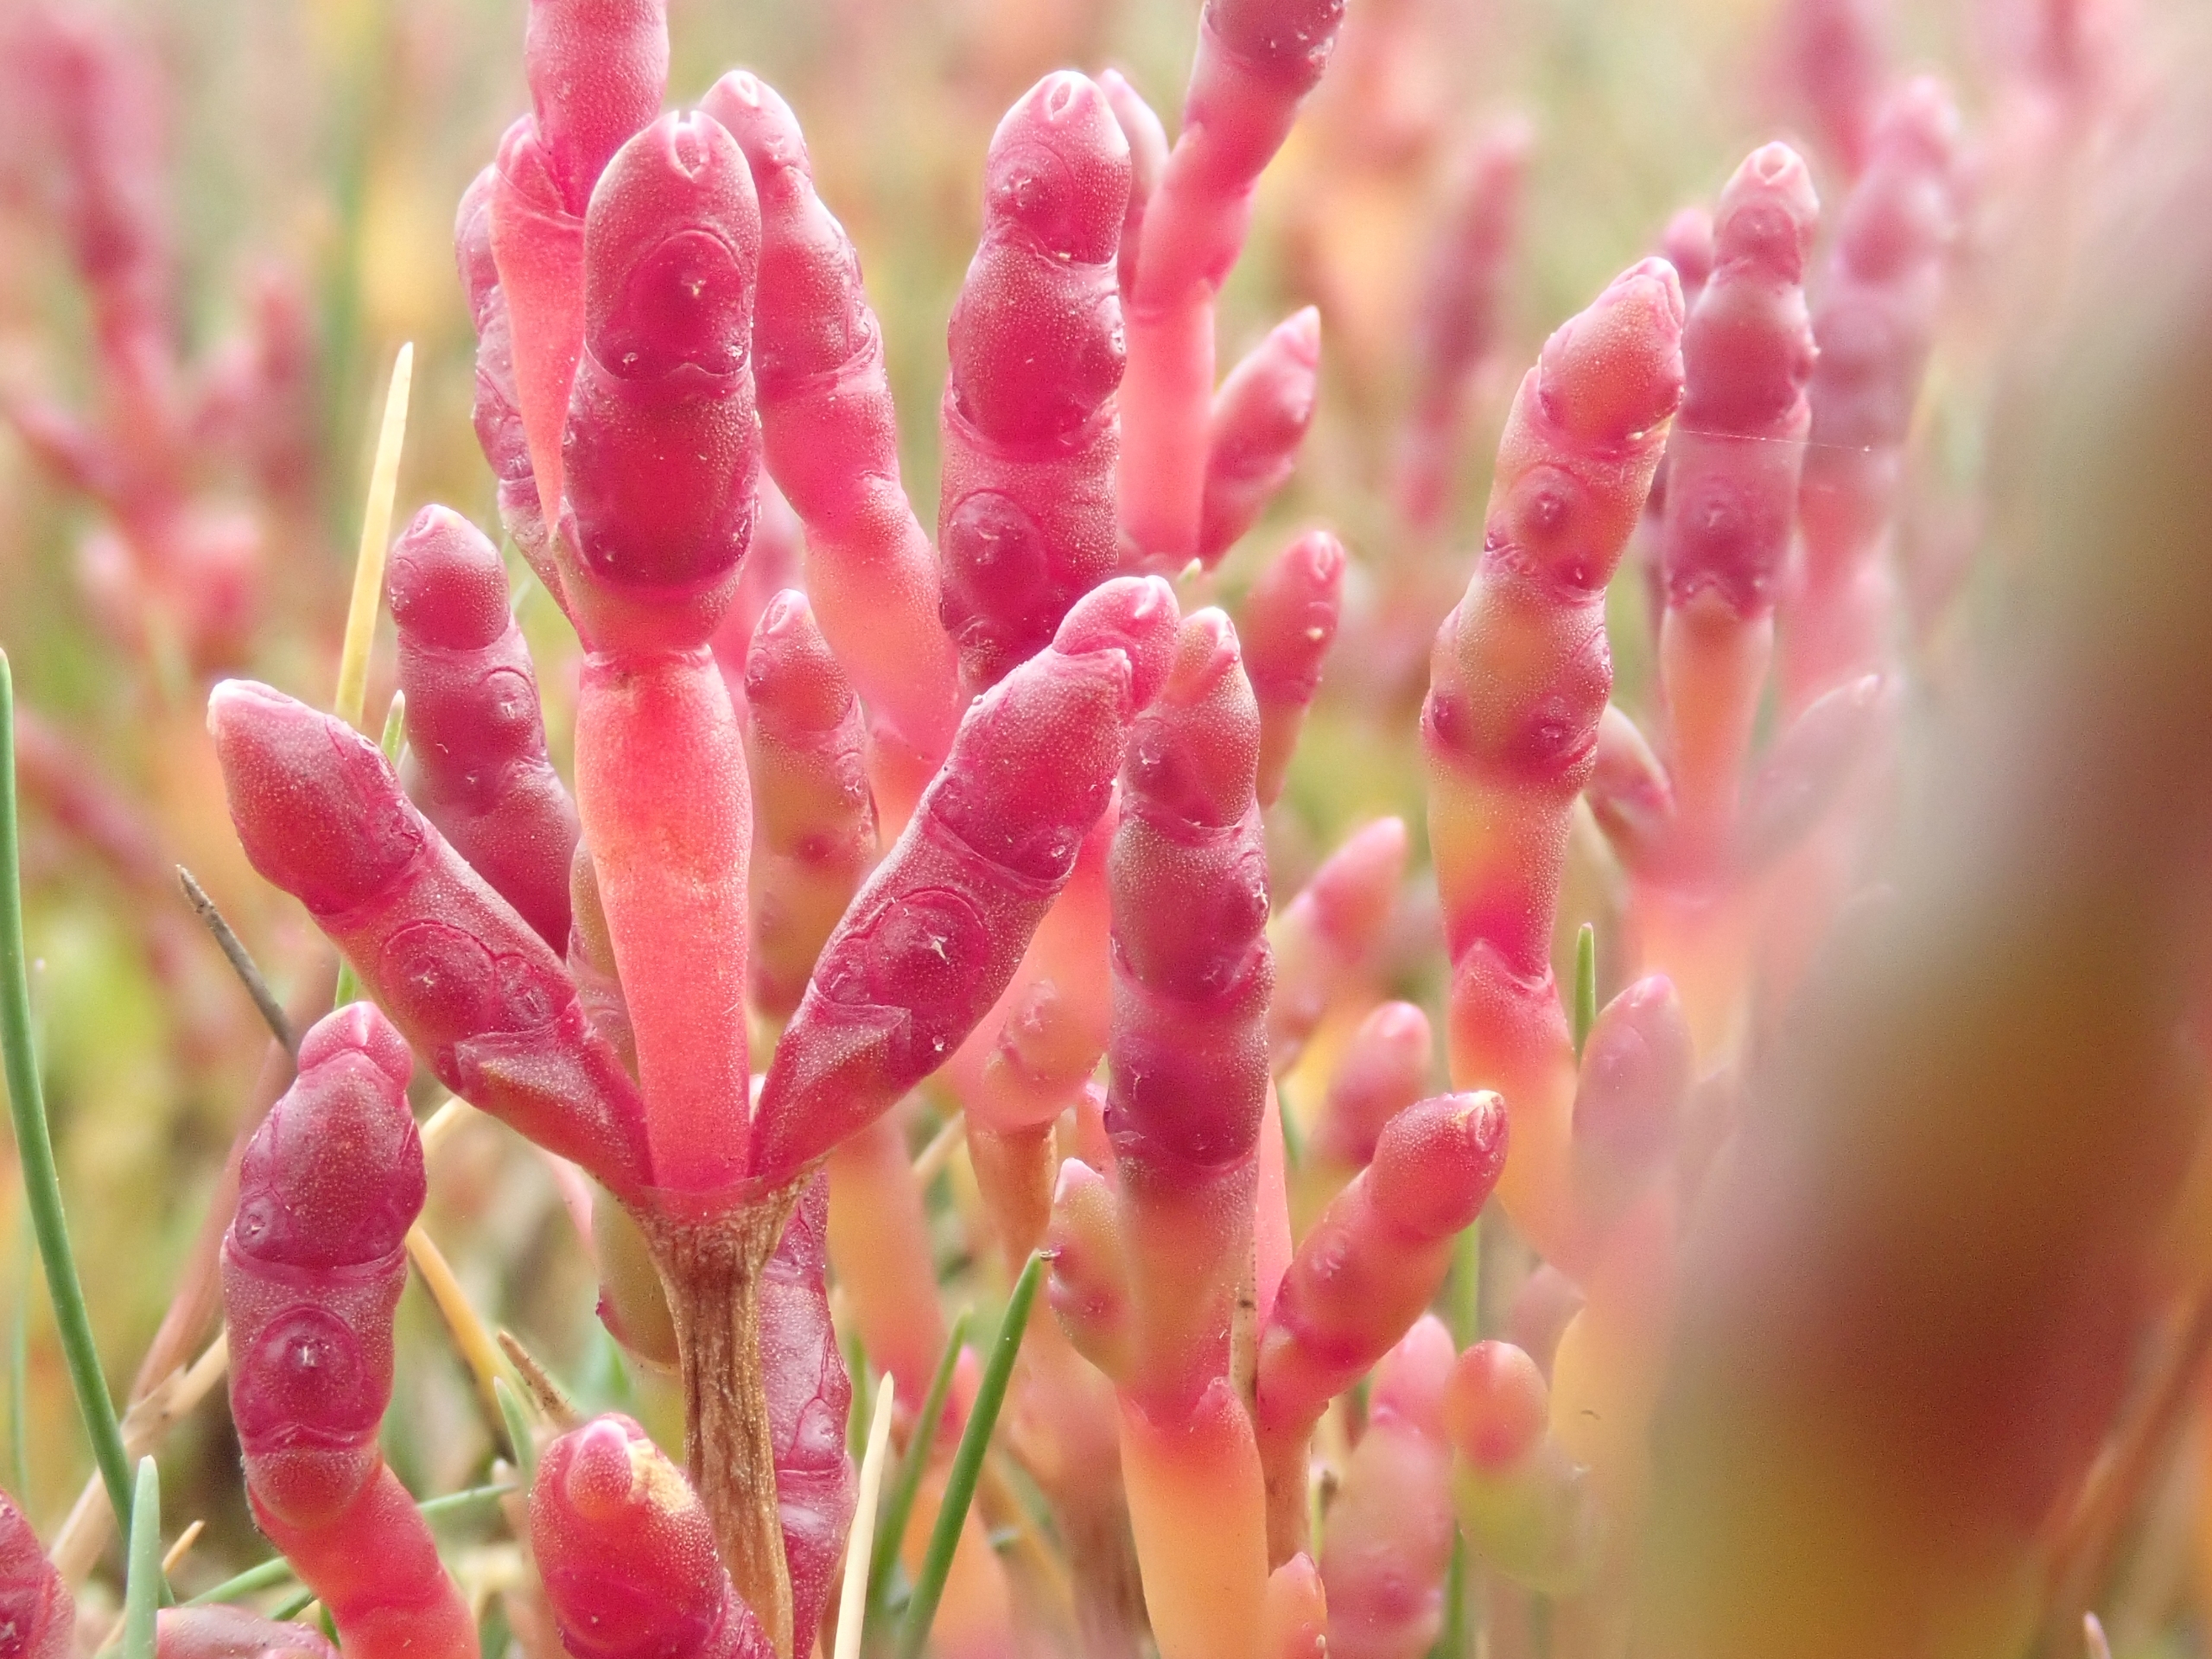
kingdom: Plantae
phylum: Tracheophyta
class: Magnoliopsida
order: Caryophyllales
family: Amaranthaceae
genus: Salicornia
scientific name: Salicornia europaea
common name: Almindelig salturt
